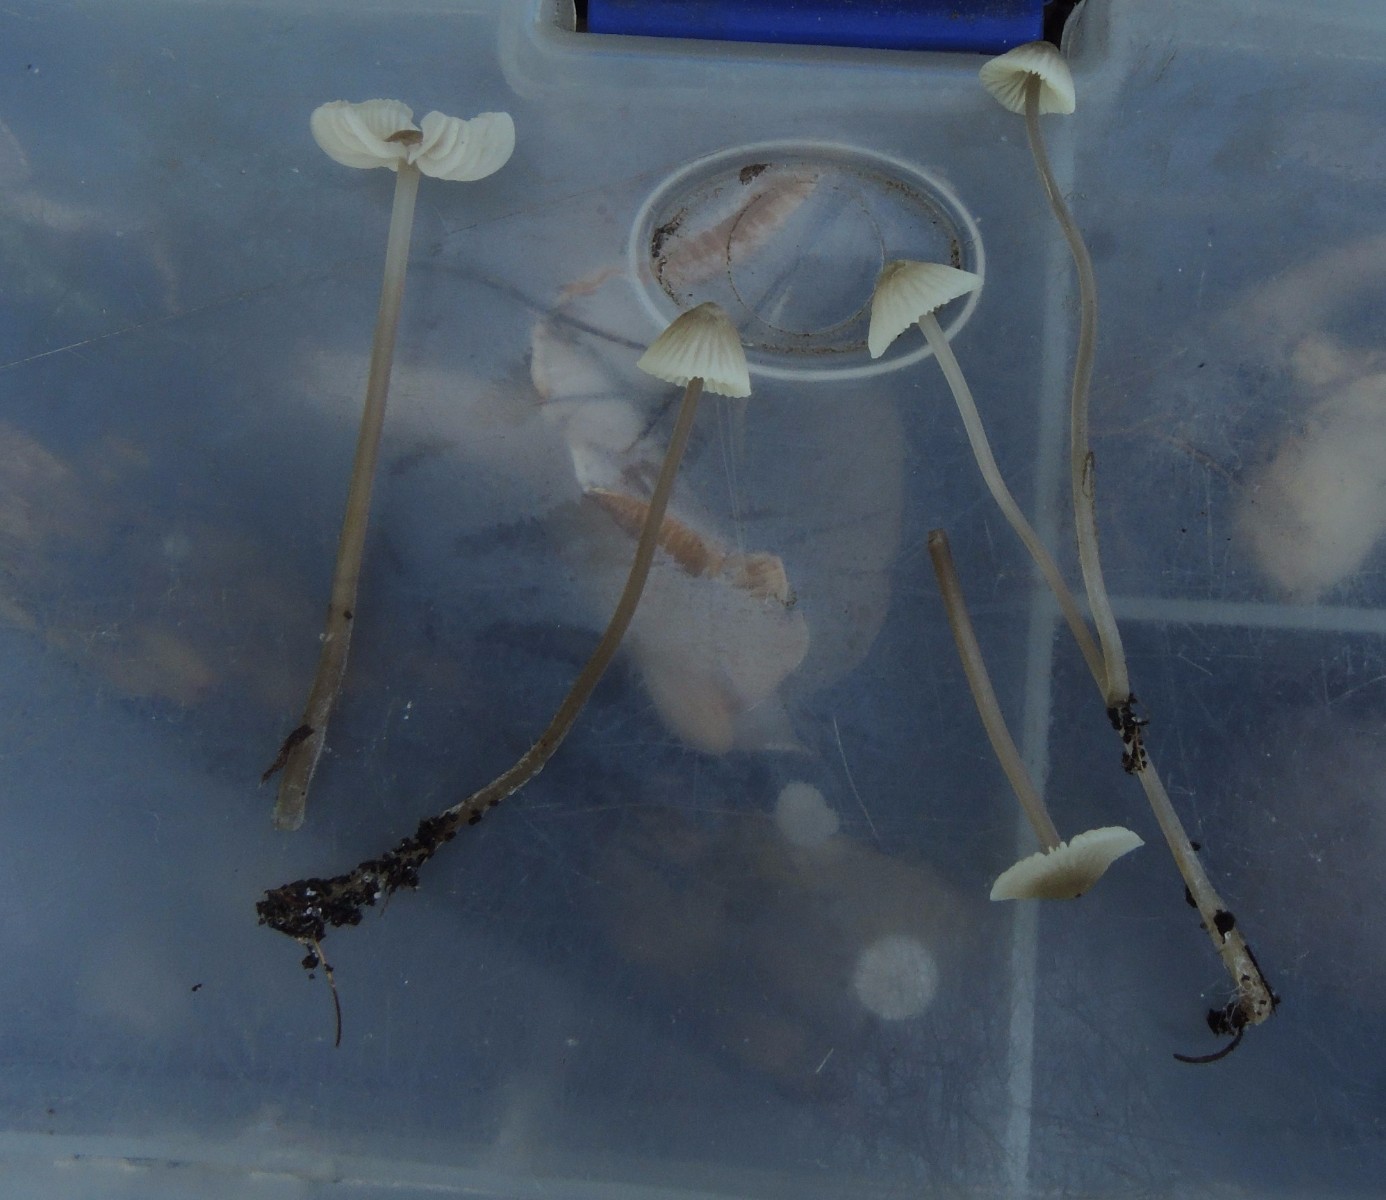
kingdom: Fungi
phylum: Basidiomycota
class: Agaricomycetes
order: Agaricales
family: Mycenaceae
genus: Mycena
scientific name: Mycena flavescens
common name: grågul huesvamp
